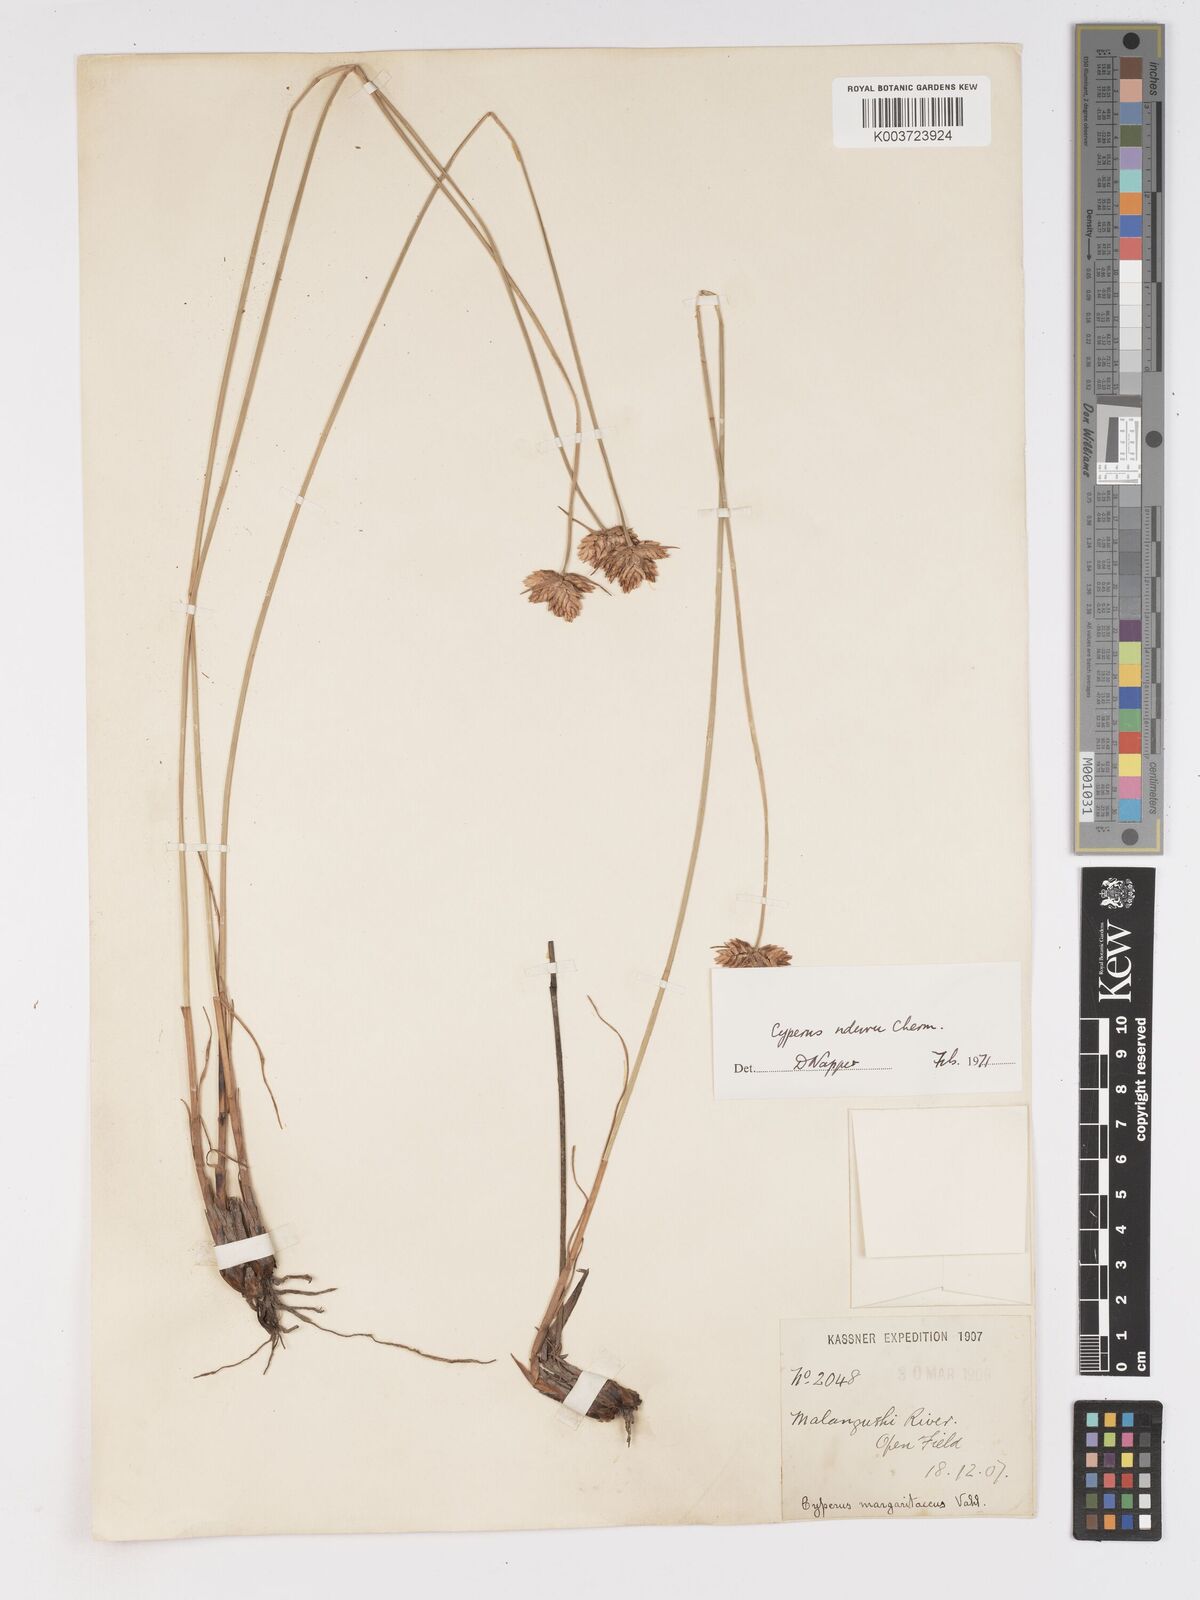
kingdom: Plantae
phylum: Tracheophyta
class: Liliopsida
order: Poales
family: Cyperaceae
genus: Cyperus
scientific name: Cyperus nduru
